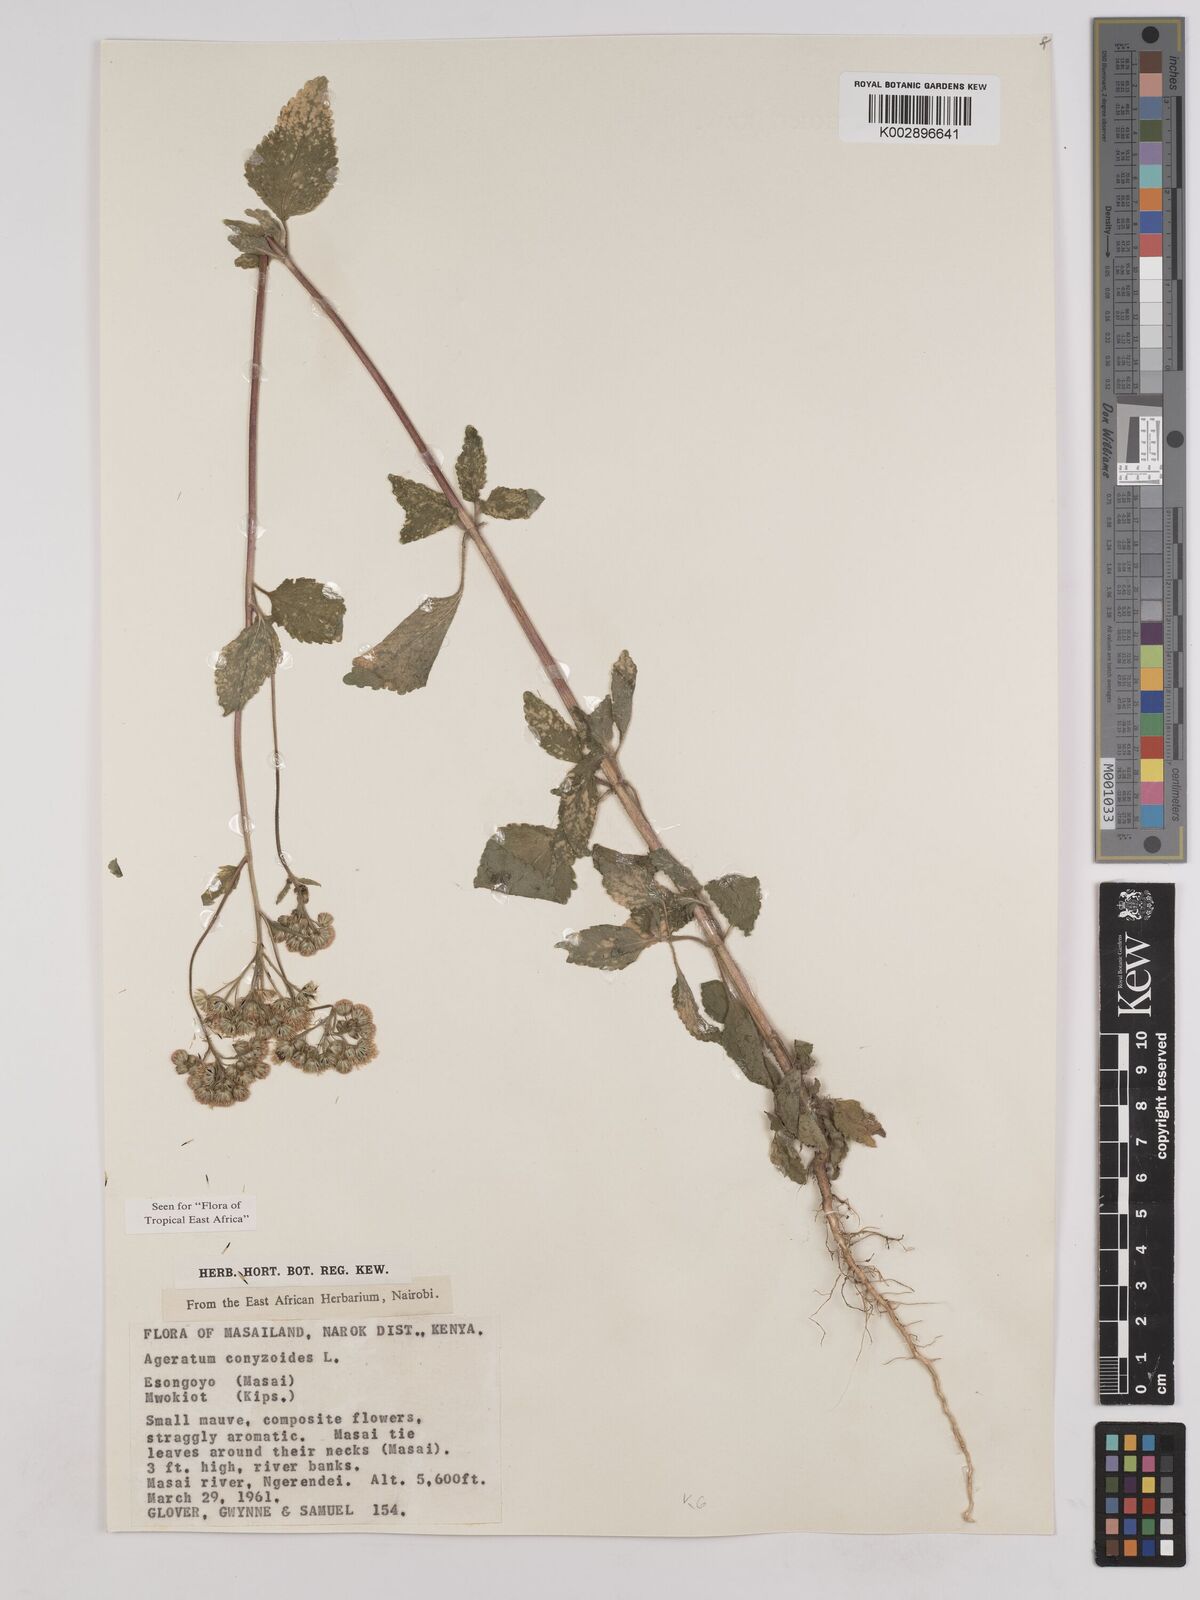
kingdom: Plantae
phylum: Tracheophyta
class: Magnoliopsida
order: Asterales
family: Asteraceae
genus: Ageratum
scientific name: Ageratum conyzoides
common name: Tropical whiteweed
